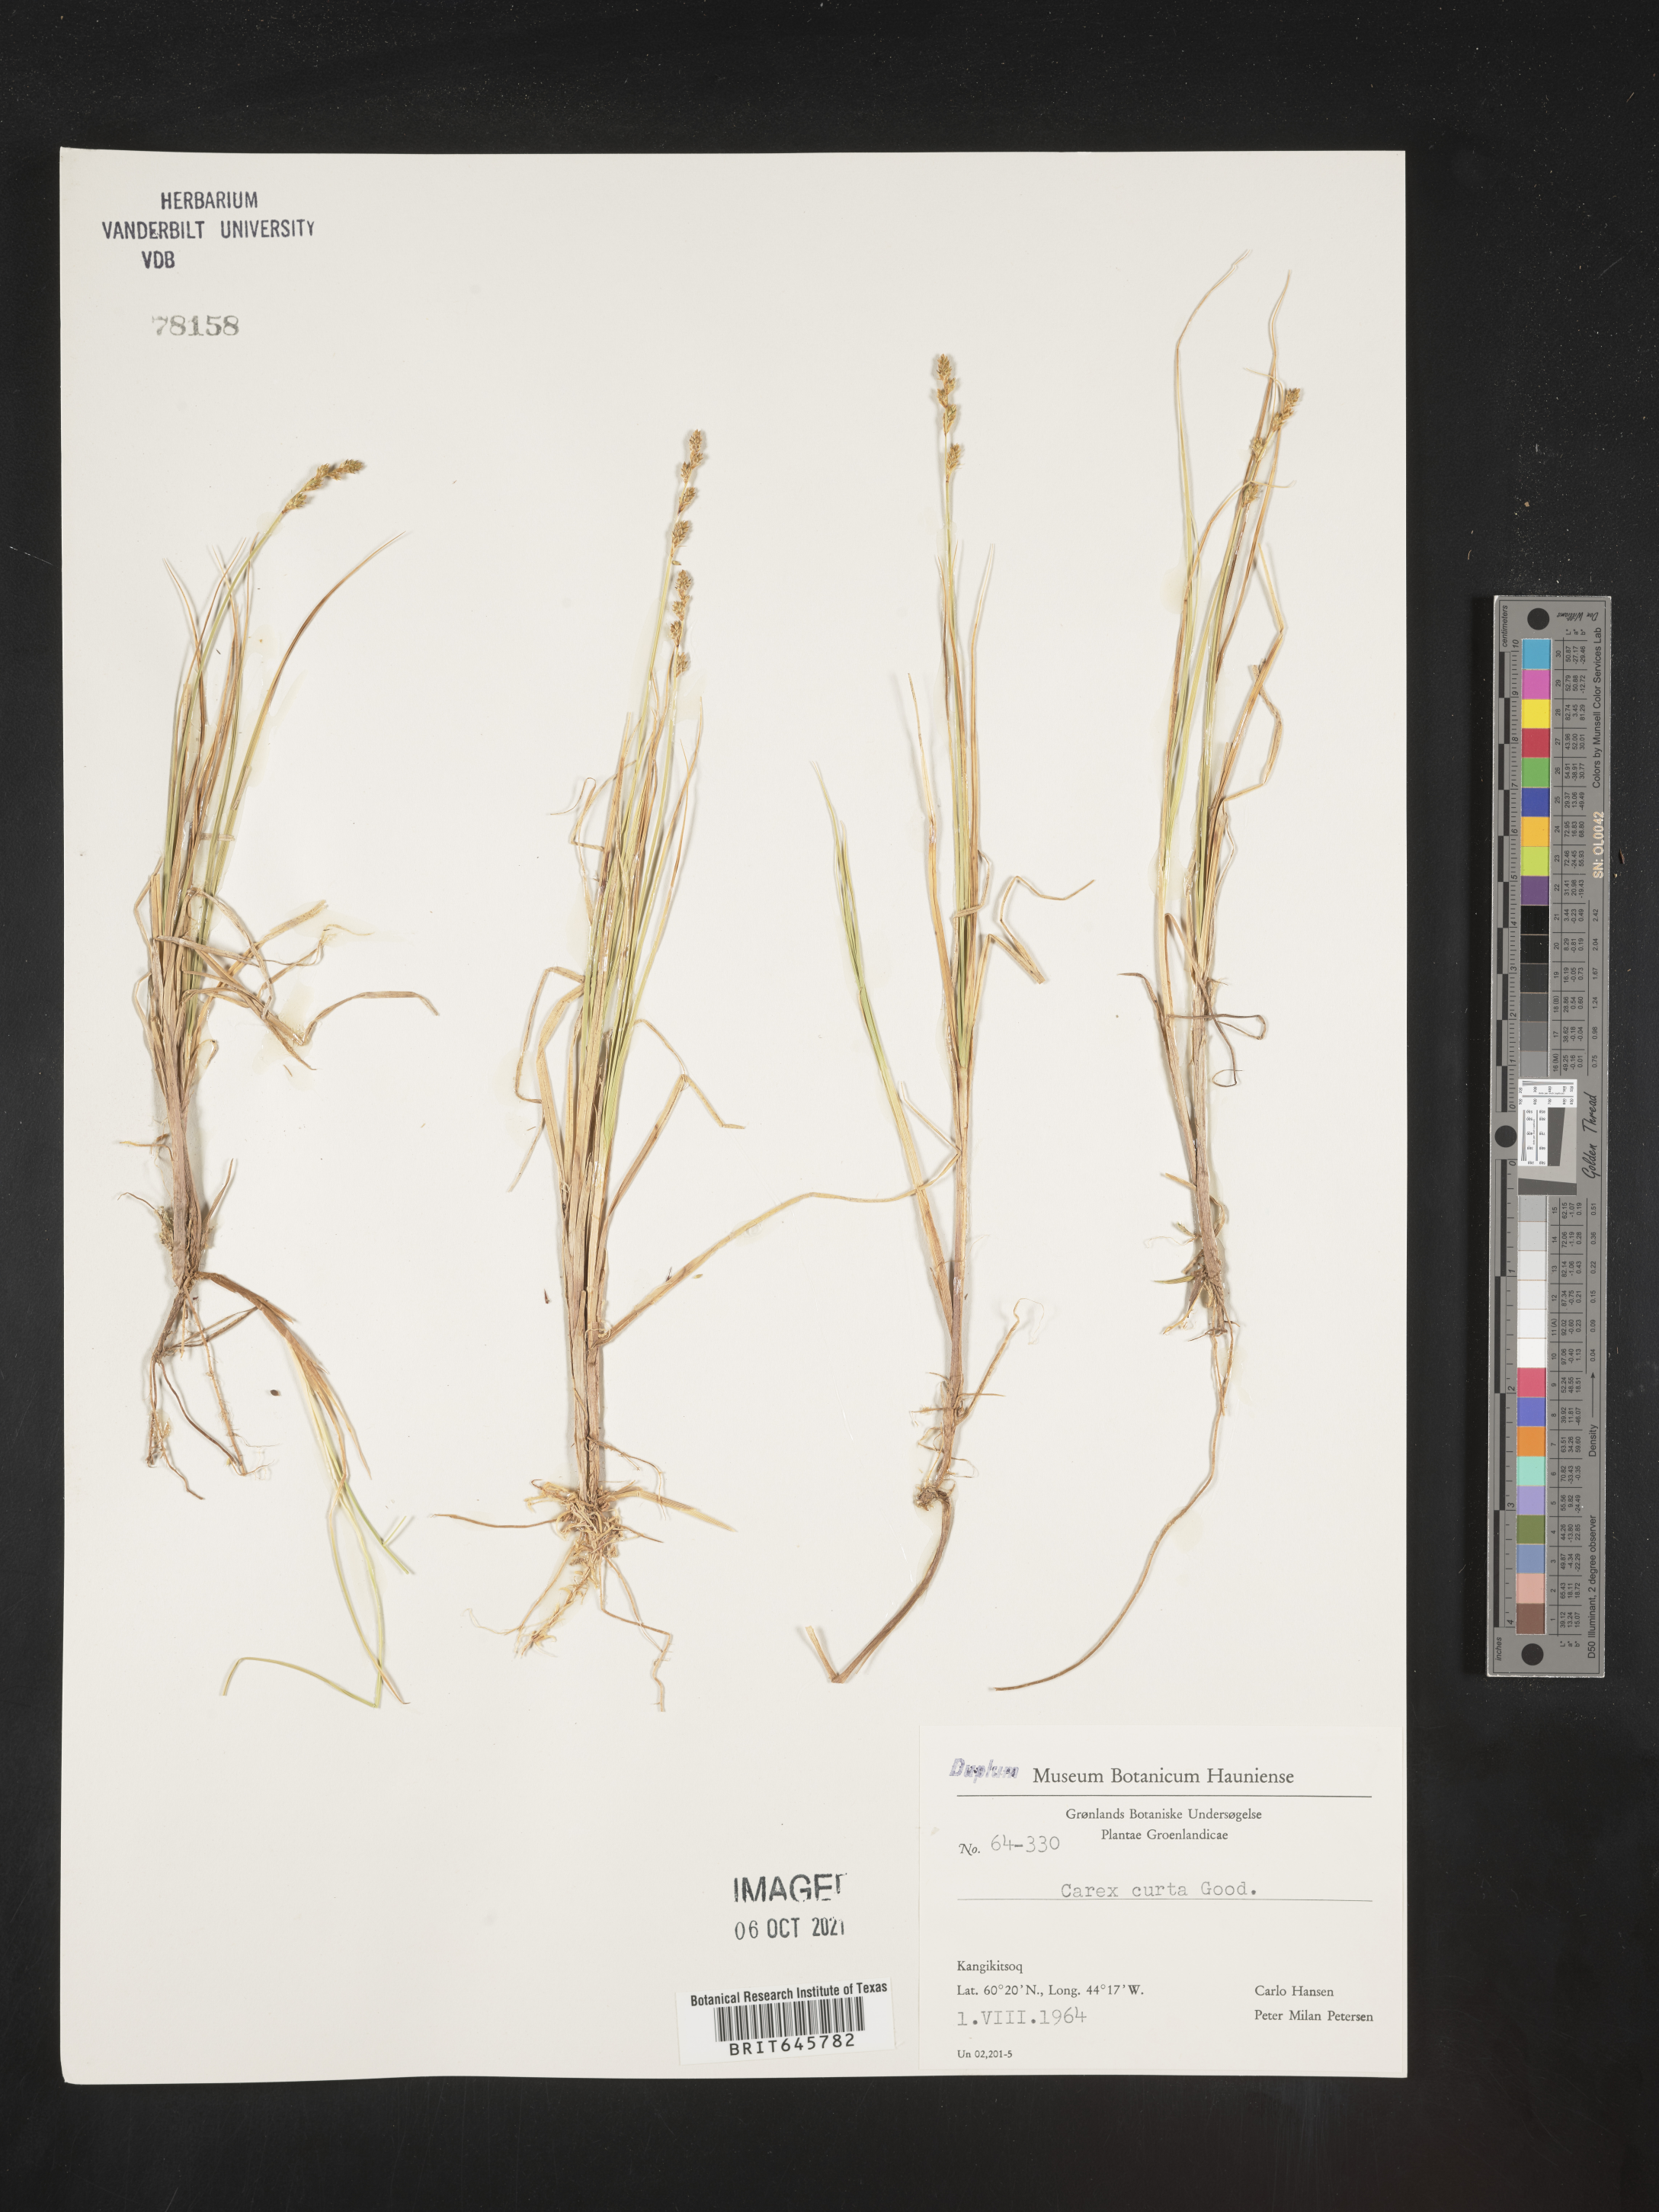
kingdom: Plantae
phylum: Tracheophyta
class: Liliopsida
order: Poales
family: Cyperaceae
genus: Carex
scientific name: Carex curta
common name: White sedge
